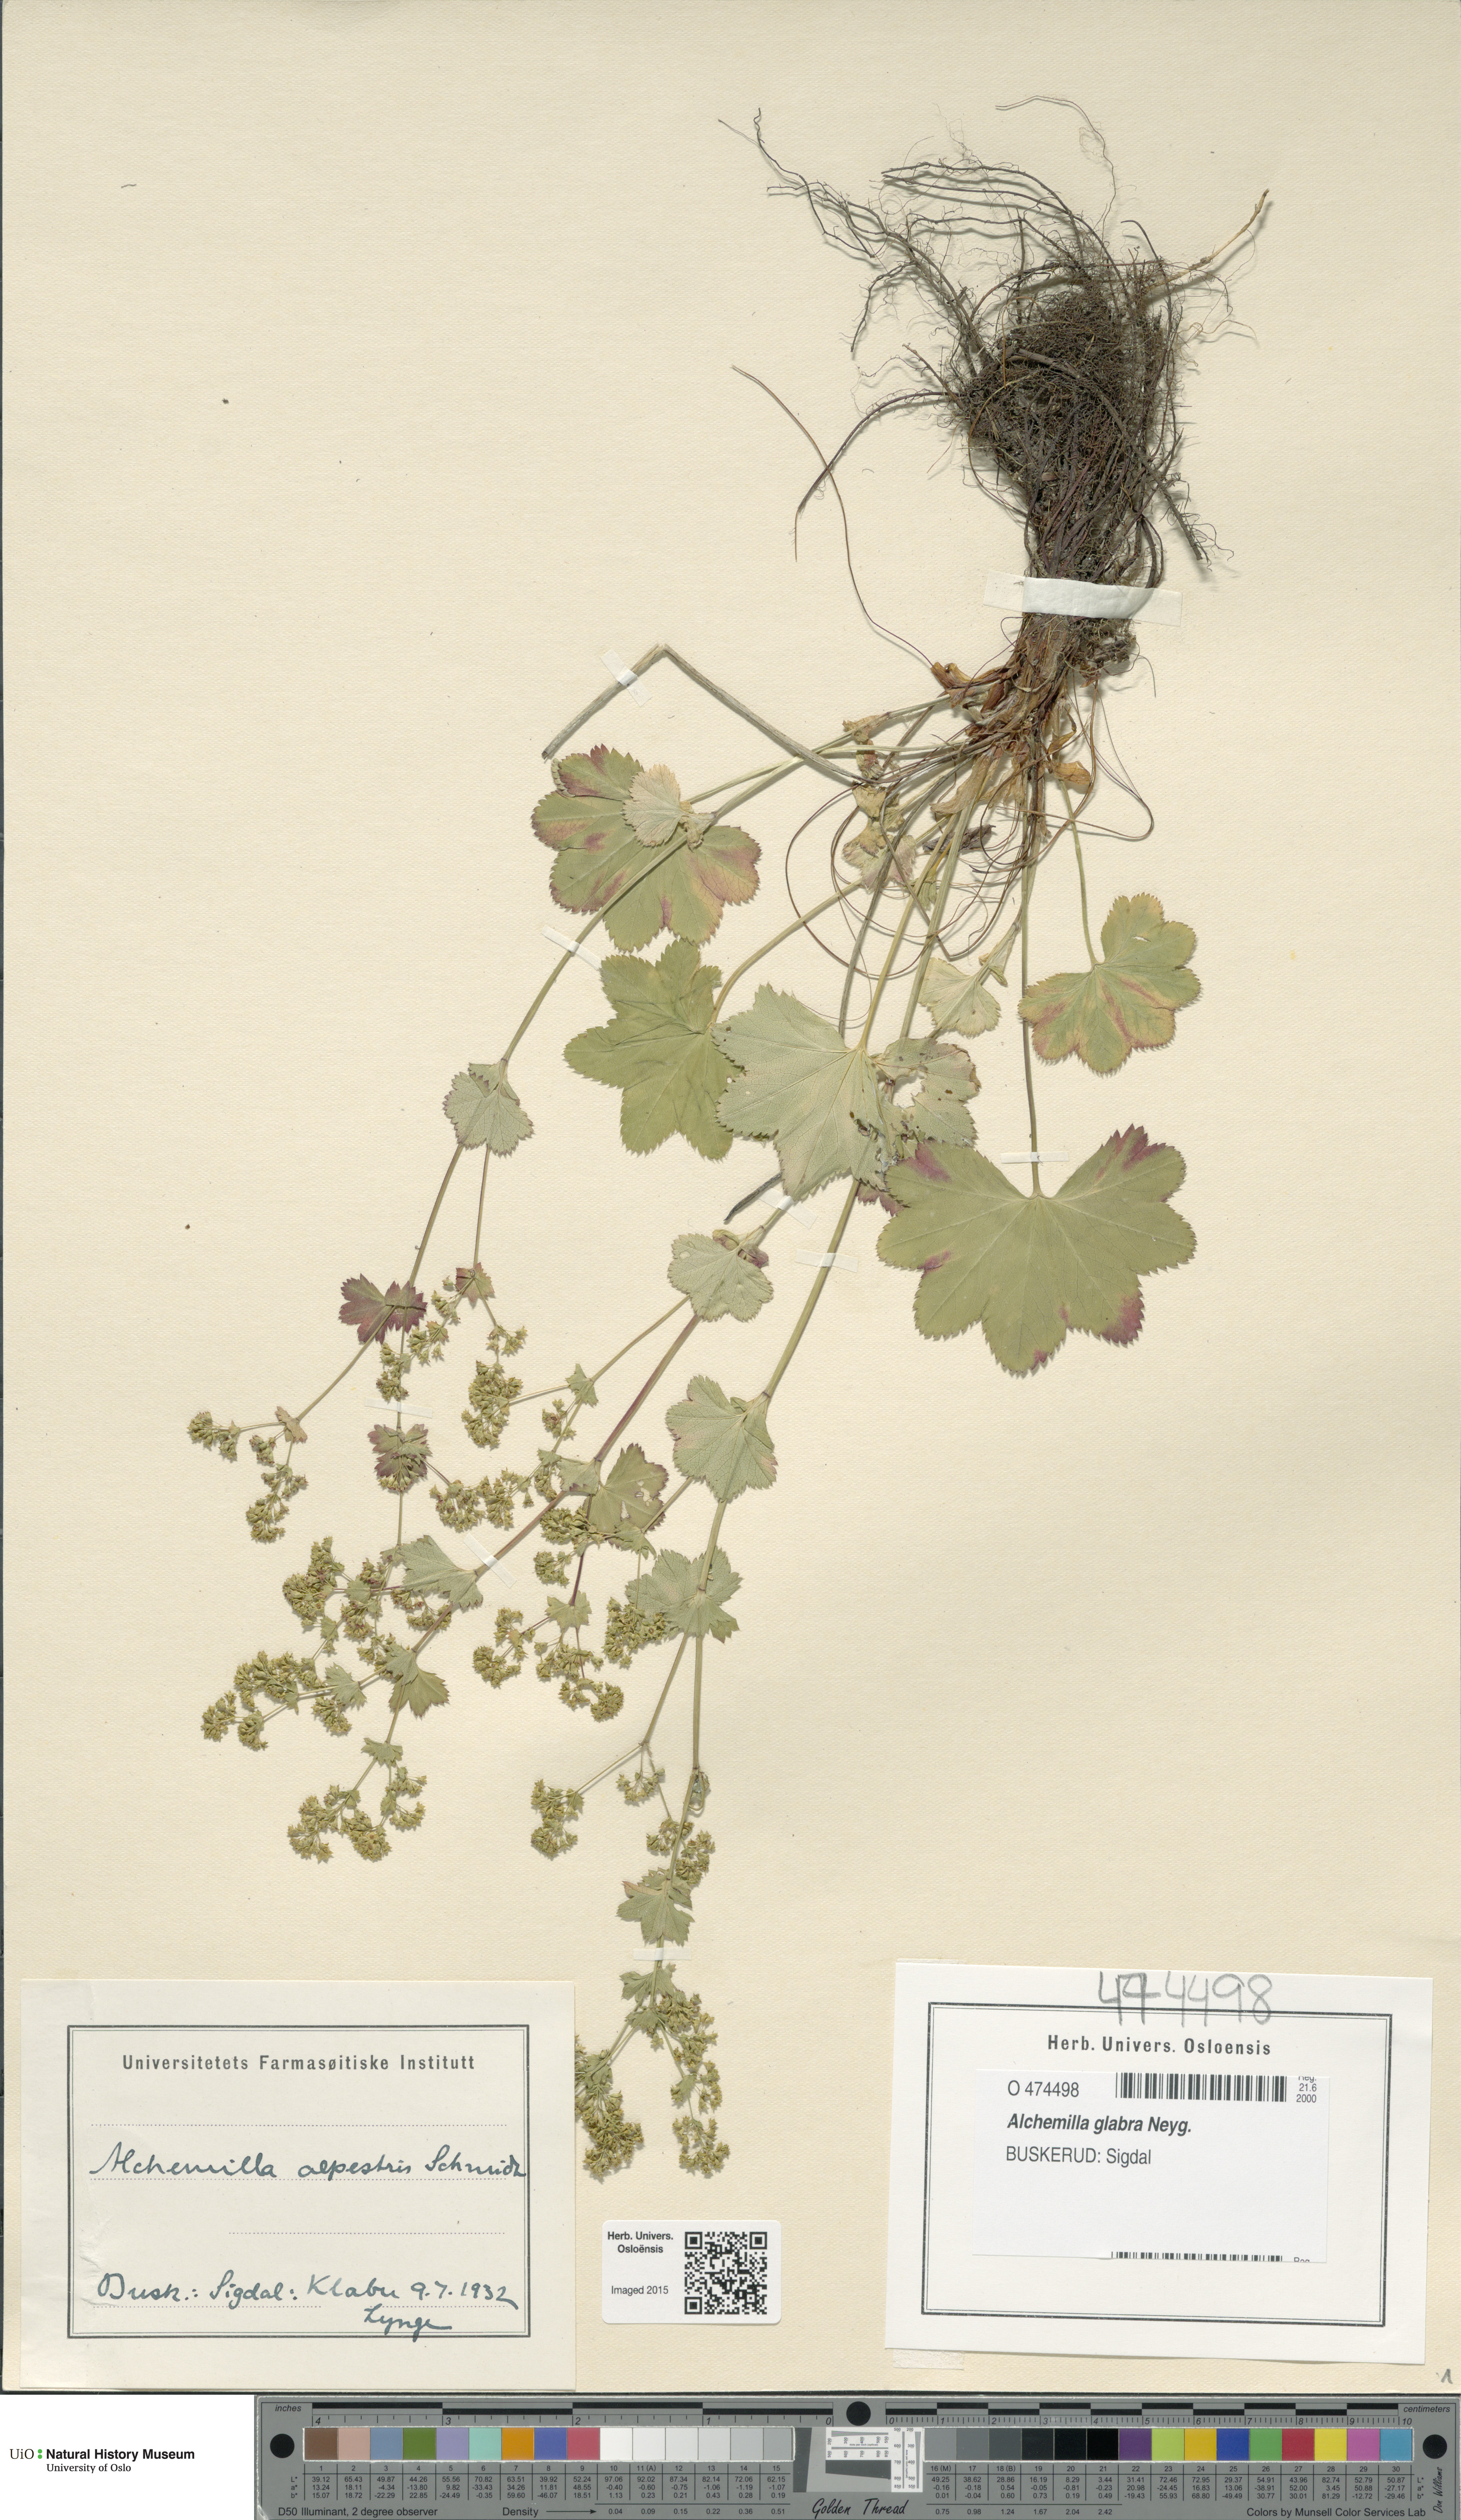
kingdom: Plantae
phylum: Tracheophyta
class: Magnoliopsida
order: Rosales
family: Rosaceae
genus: Alchemilla
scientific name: Alchemilla glabra
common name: Smooth lady's-mantle
